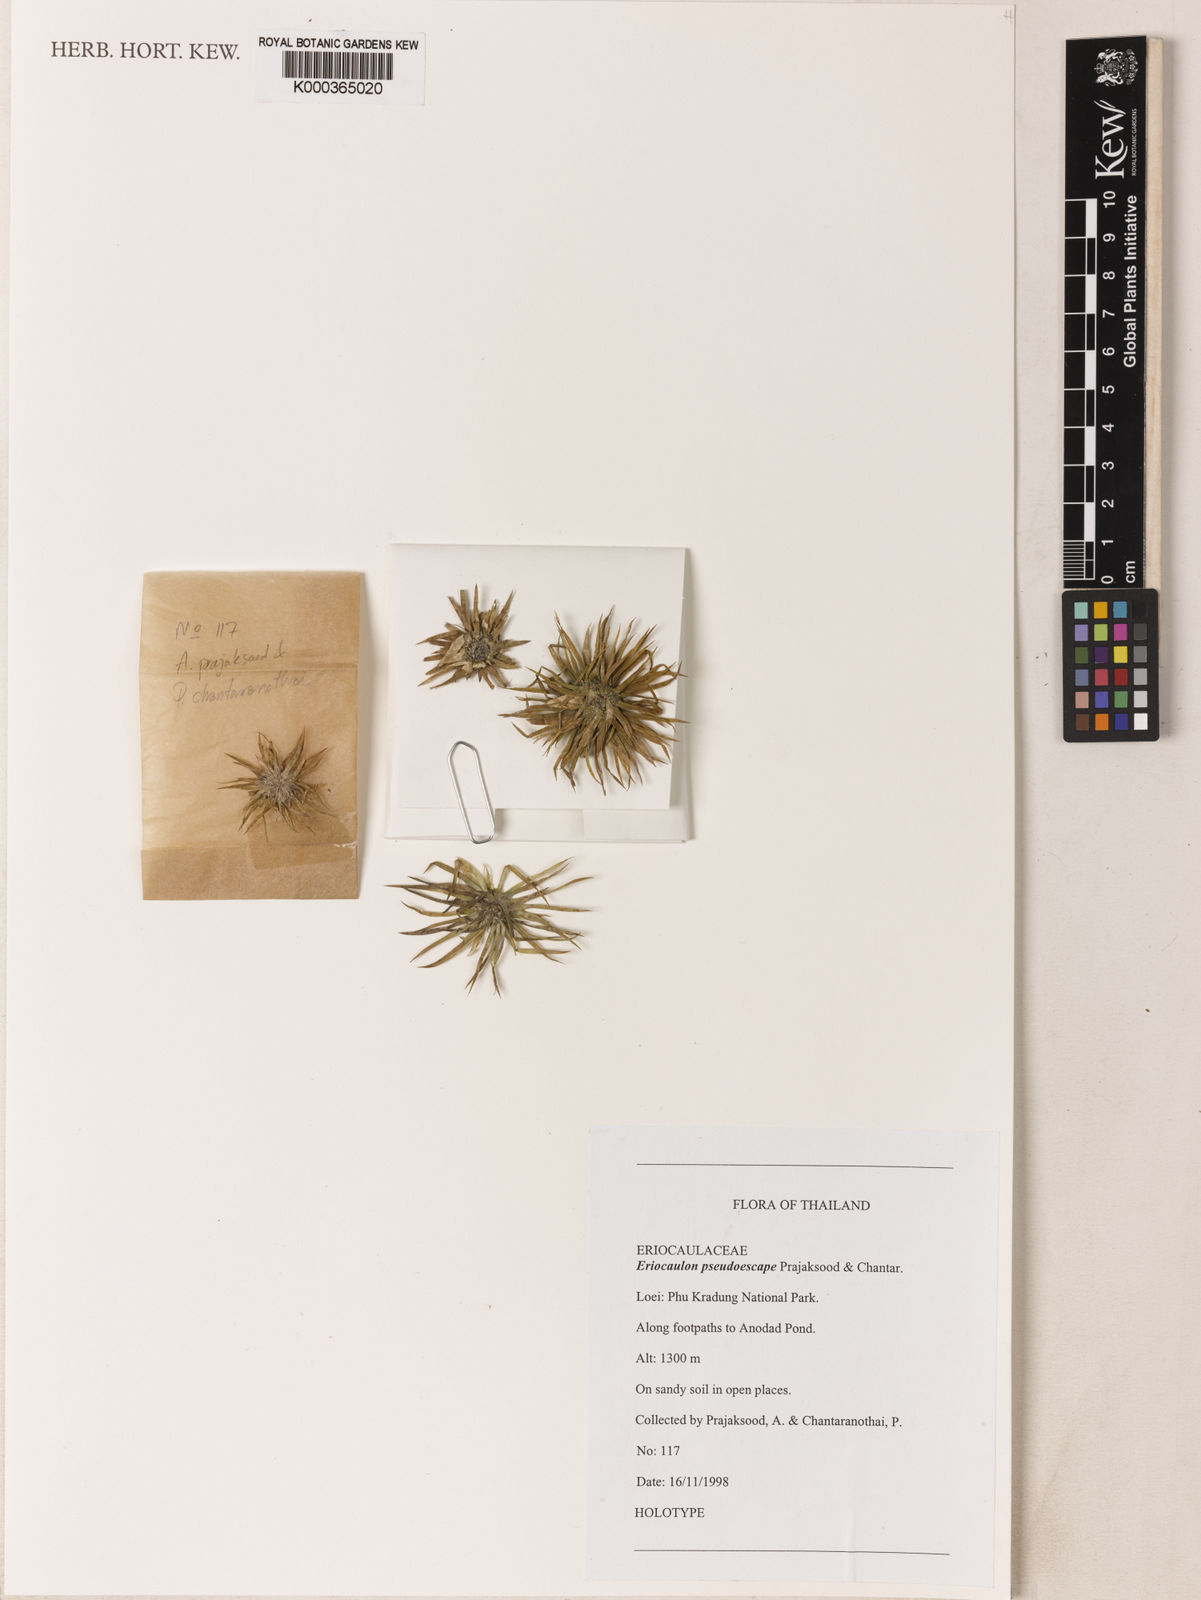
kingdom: Plantae
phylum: Tracheophyta
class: Liliopsida
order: Poales
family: Eriocaulaceae
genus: Eriocaulon
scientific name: Eriocaulon pseudoescape
